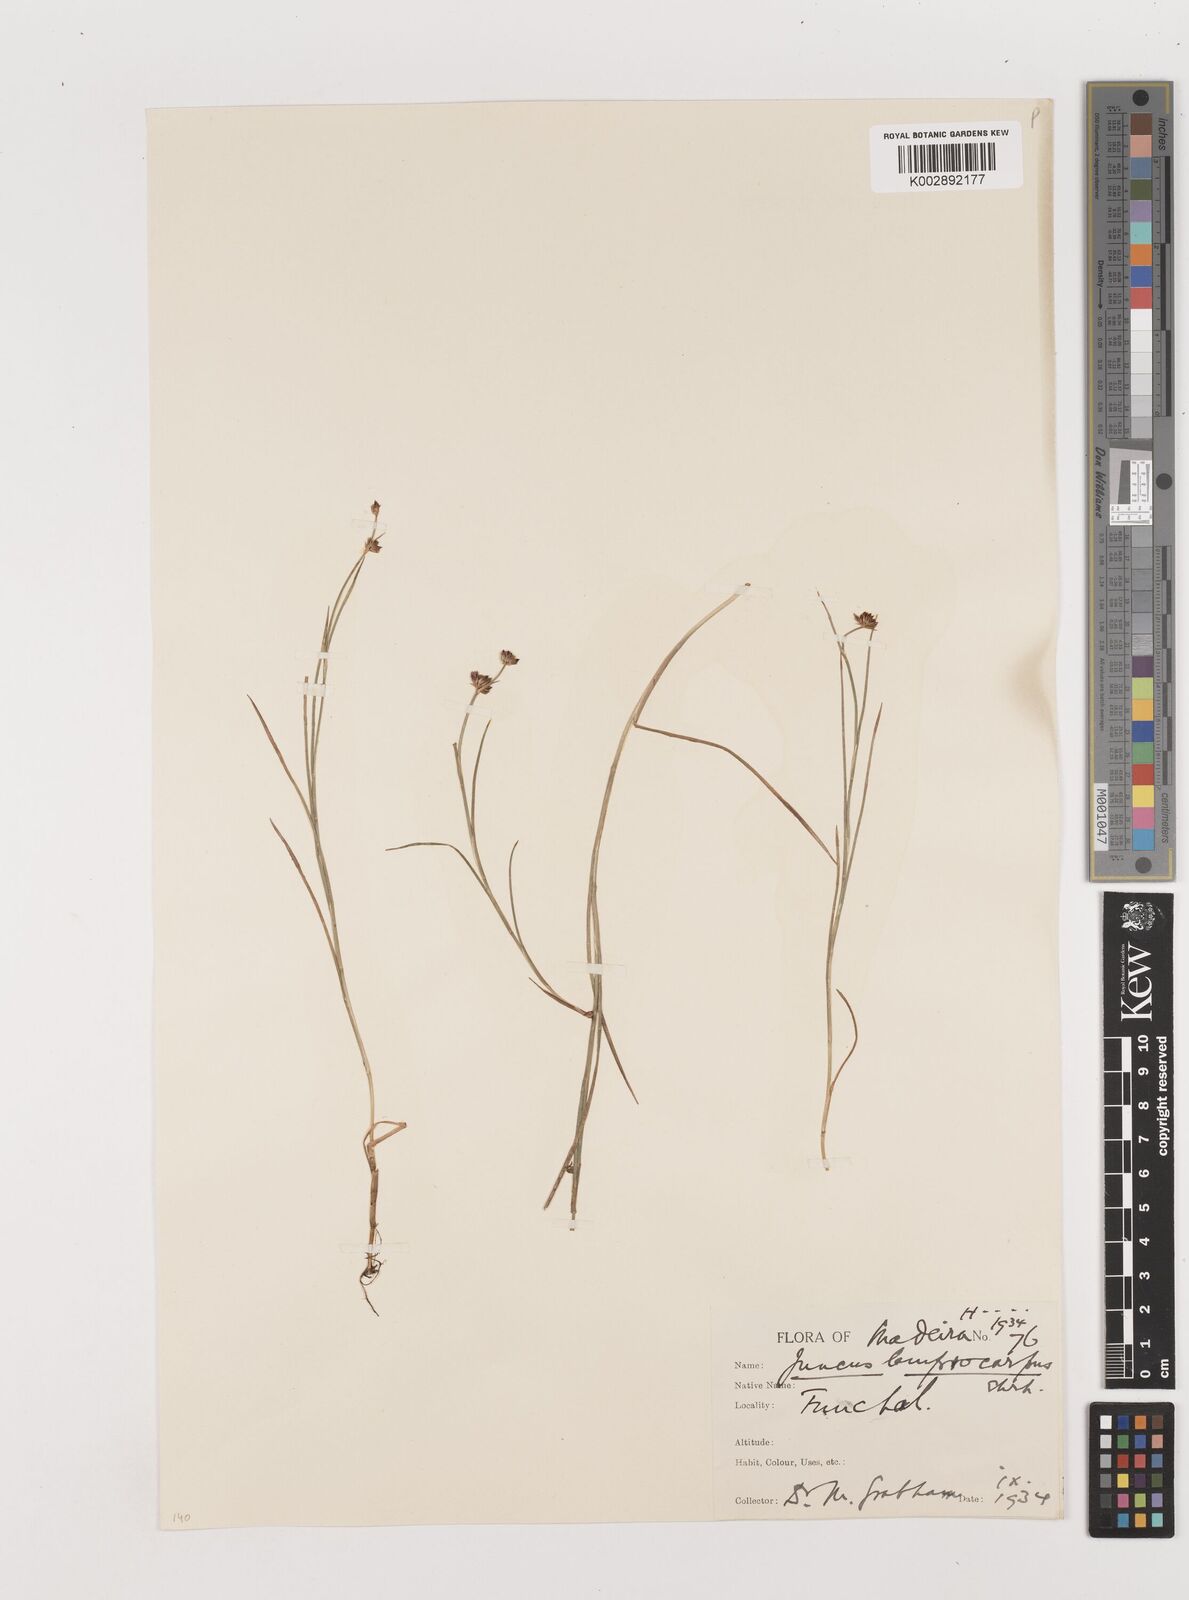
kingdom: Plantae
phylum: Tracheophyta
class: Liliopsida
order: Poales
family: Juncaceae
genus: Juncus
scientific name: Juncus articulatus
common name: Jointed rush
